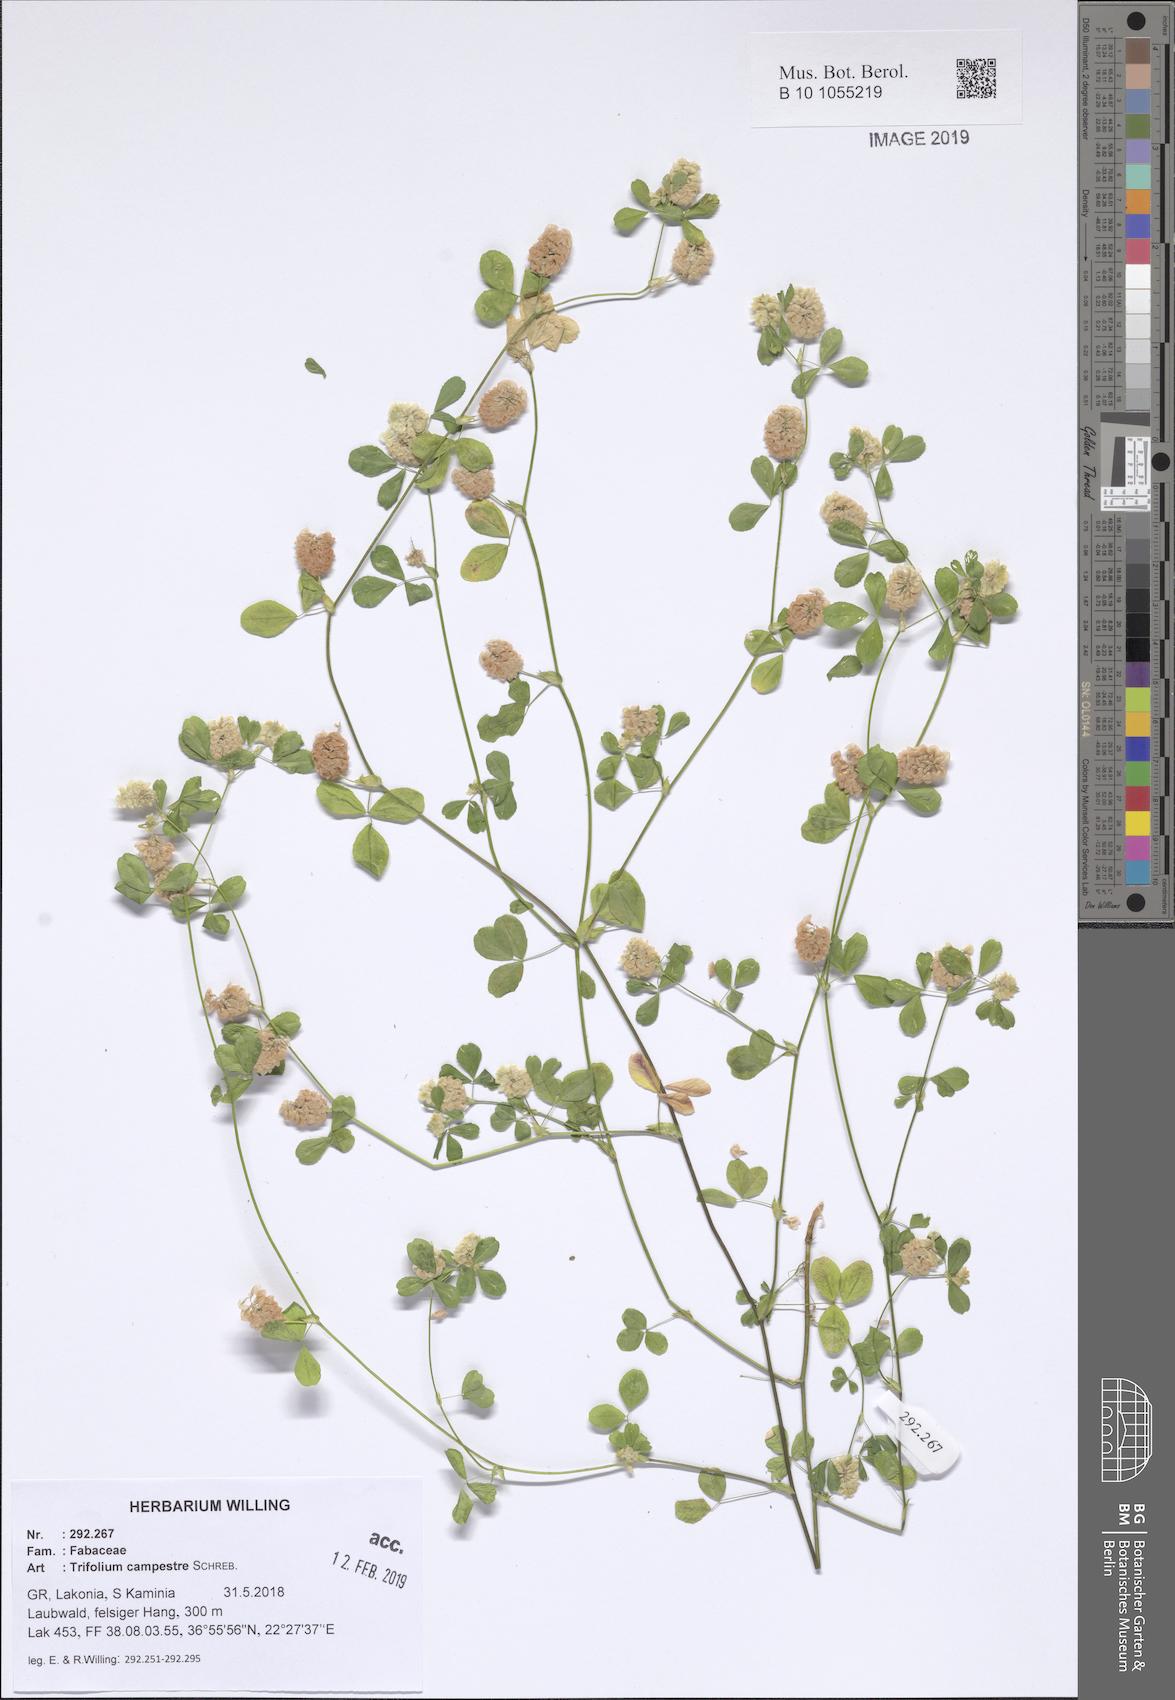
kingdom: Plantae
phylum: Tracheophyta
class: Magnoliopsida
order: Fabales
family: Fabaceae
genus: Trifolium
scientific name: Trifolium campestre
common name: Field clover
